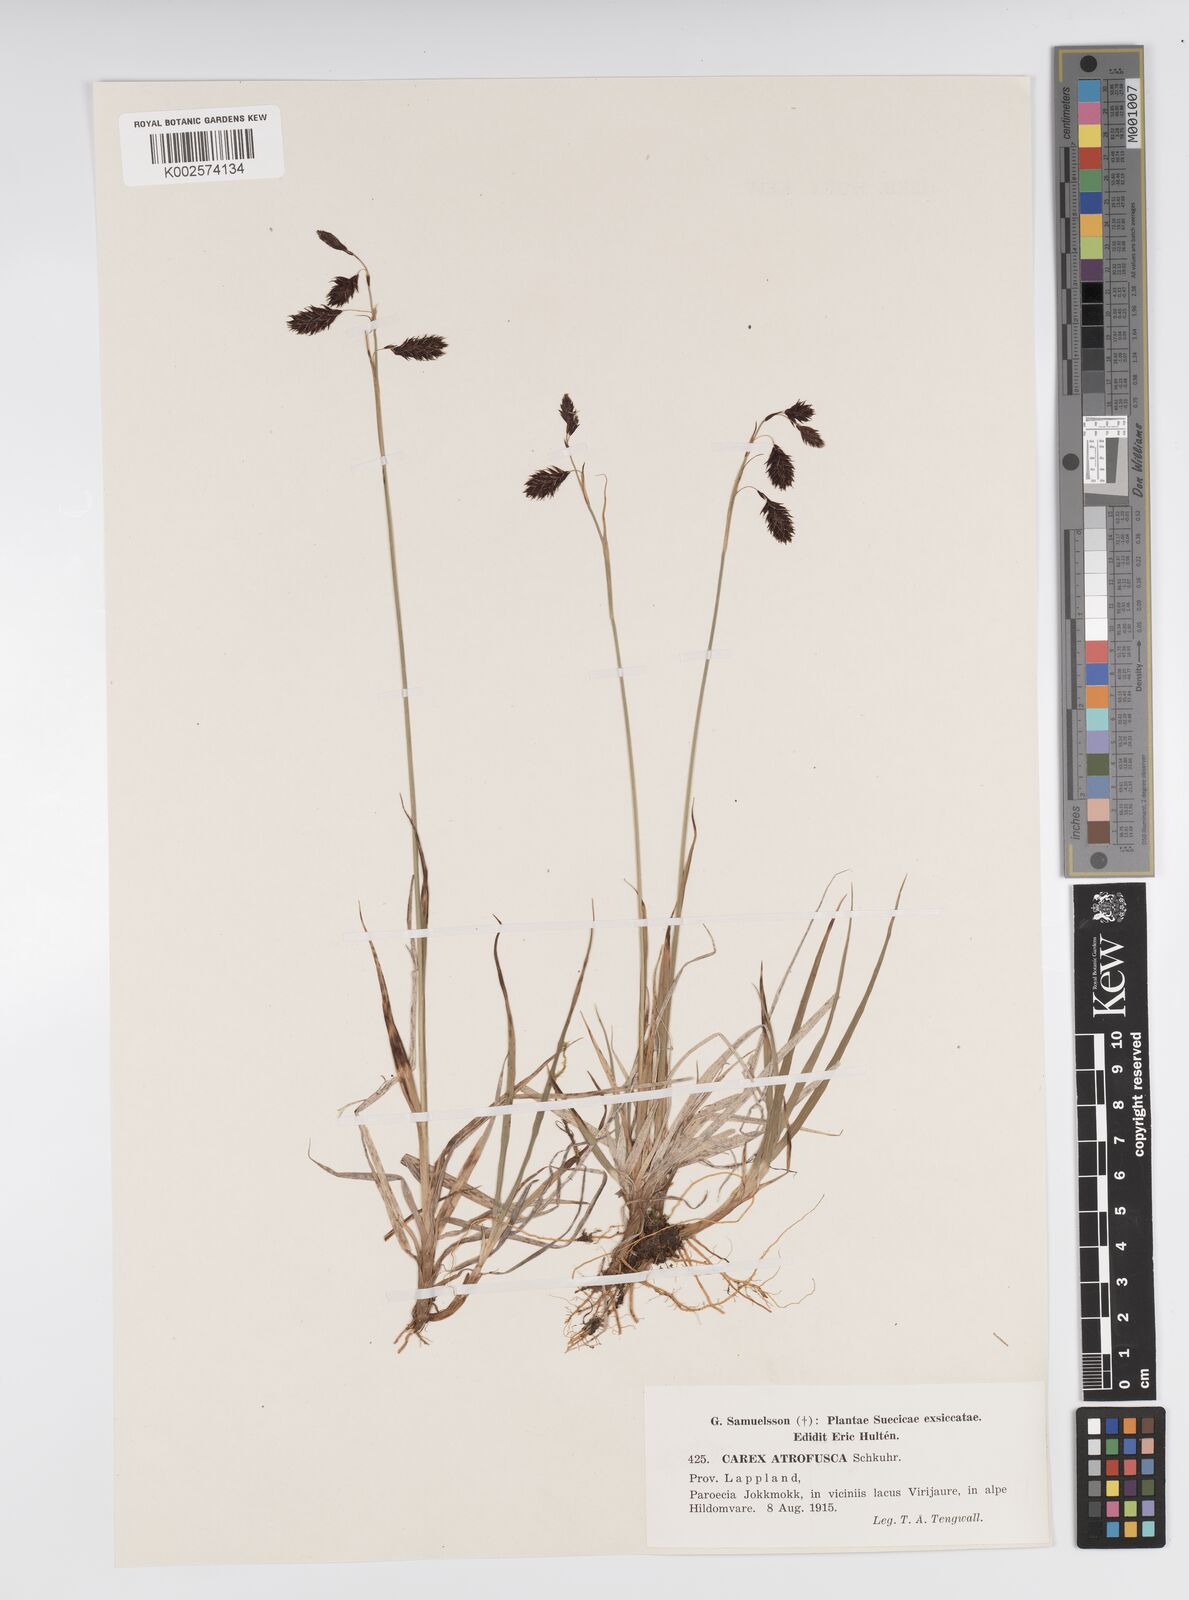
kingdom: Plantae
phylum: Tracheophyta
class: Liliopsida
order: Poales
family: Cyperaceae
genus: Carex
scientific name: Carex atrofusca
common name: Scorched alpine-sedge
